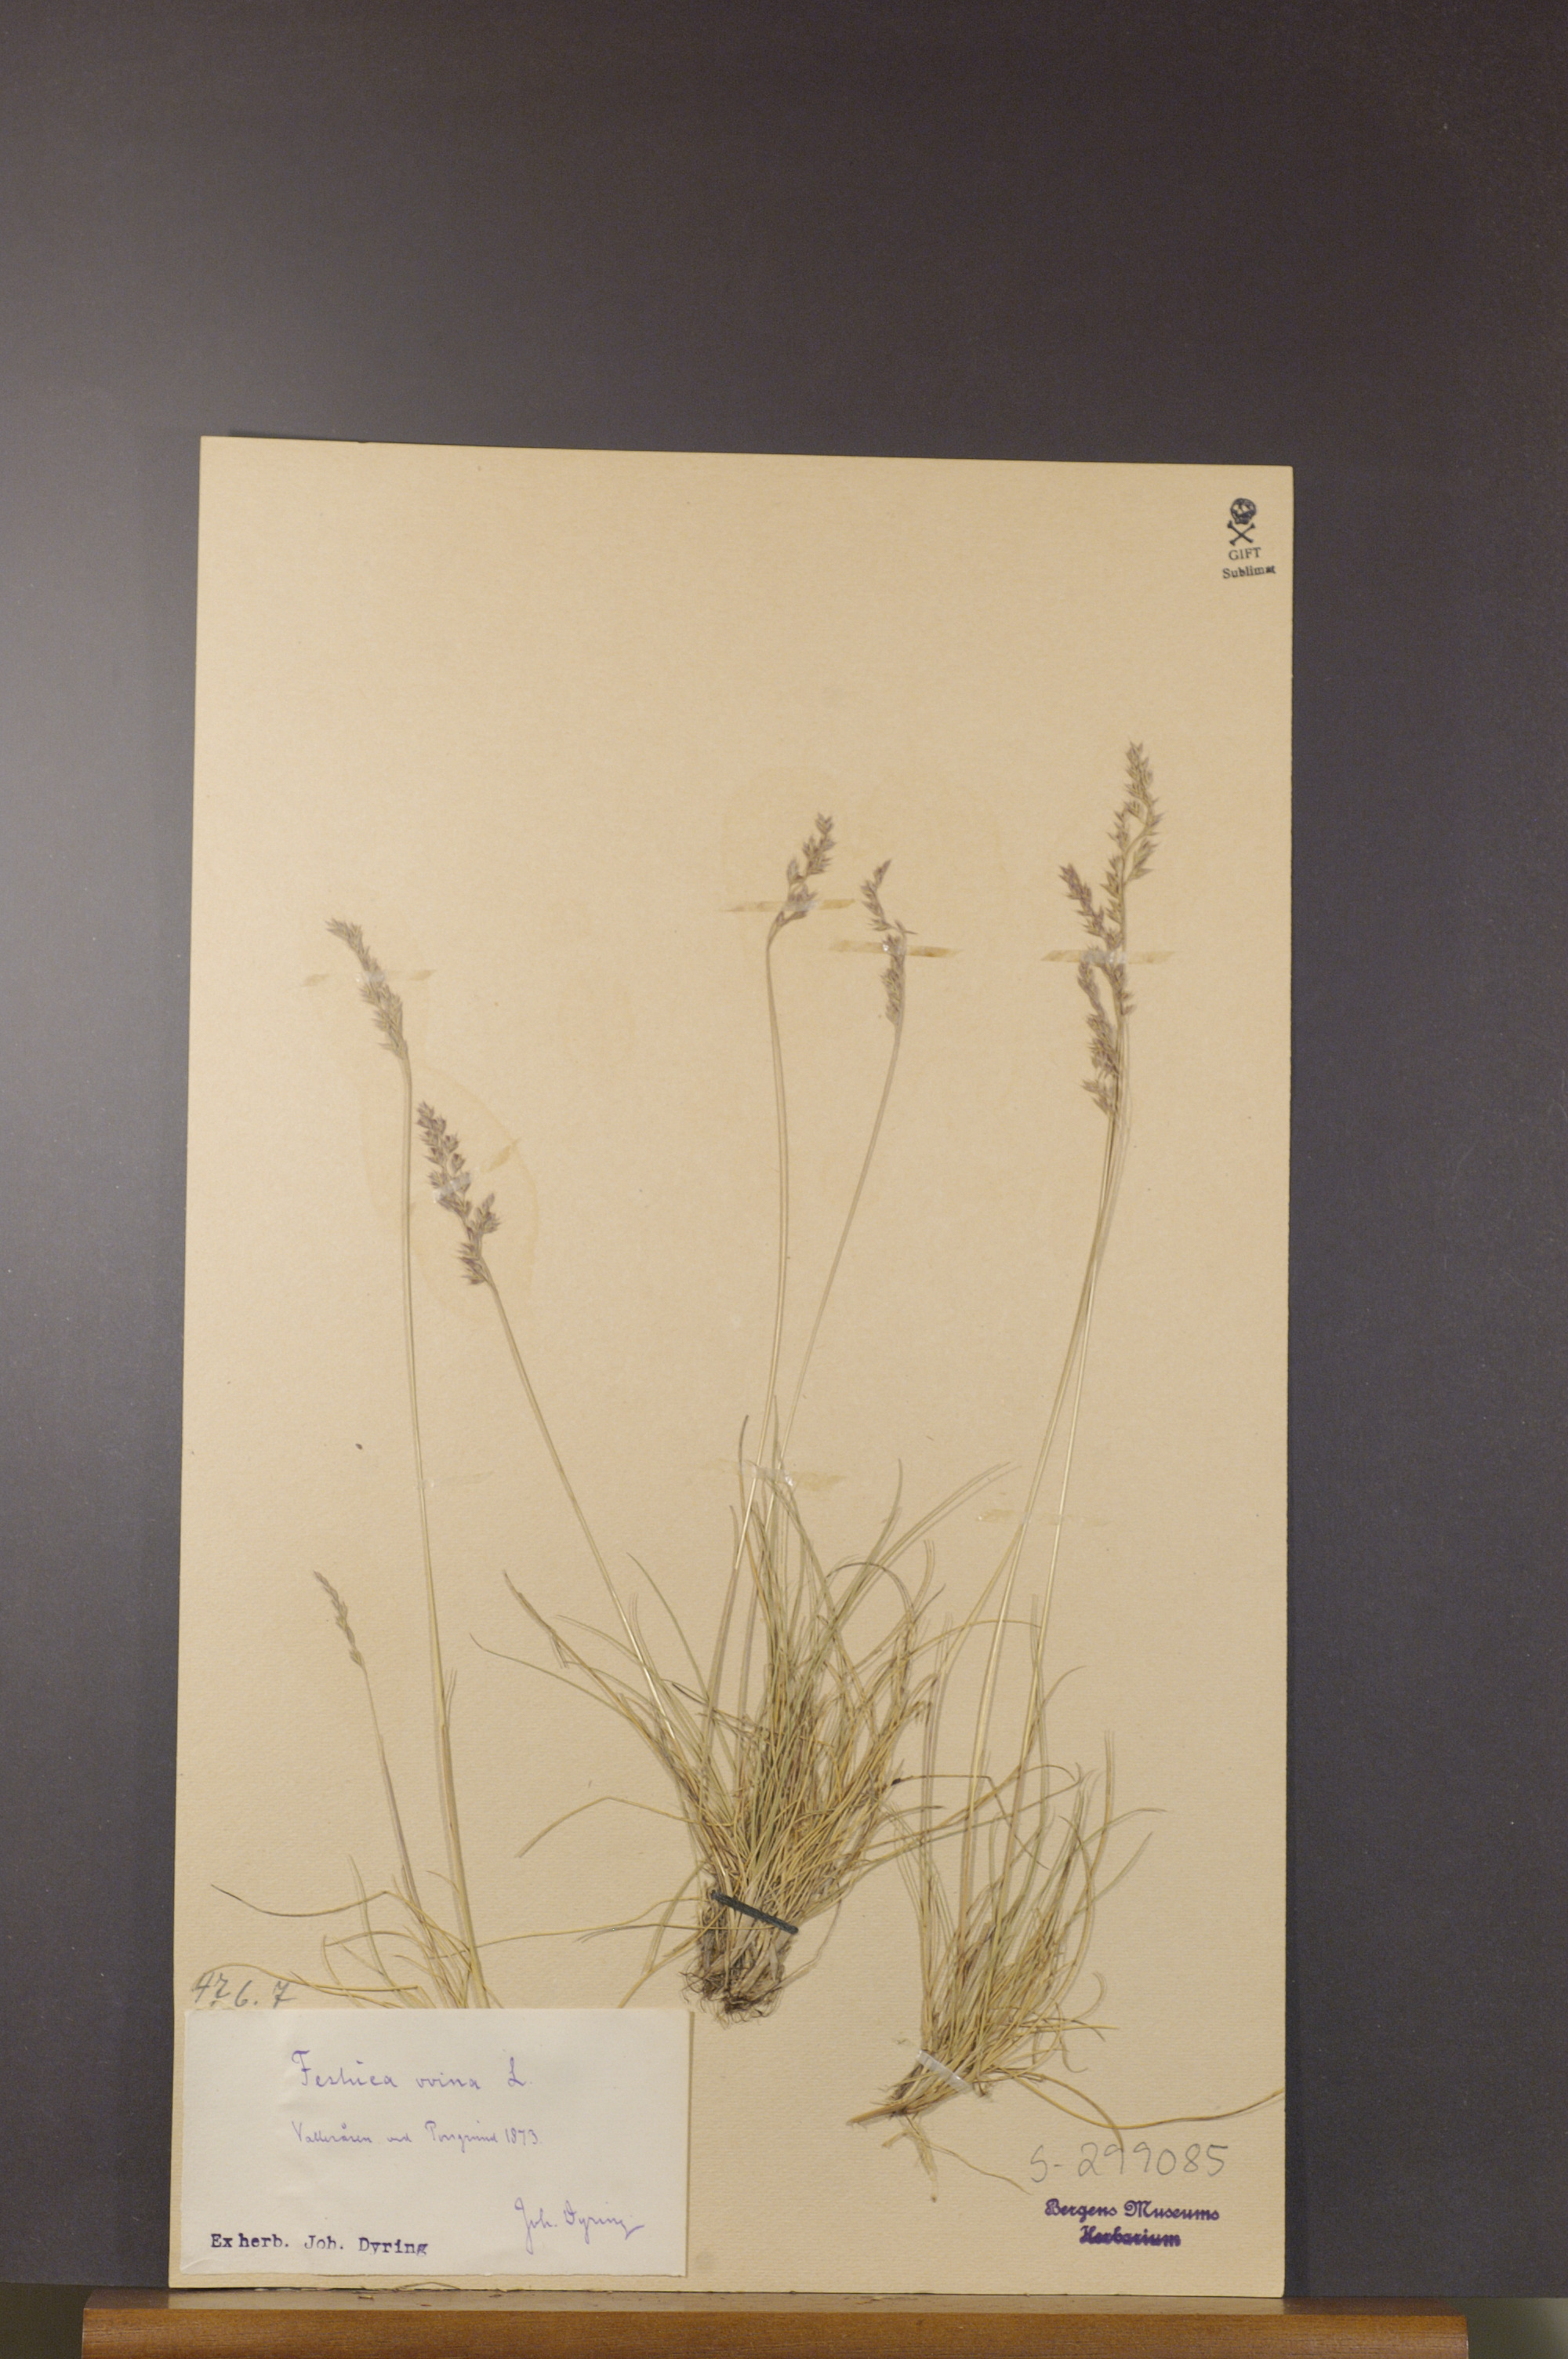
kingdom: Plantae
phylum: Tracheophyta
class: Liliopsida
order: Poales
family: Poaceae
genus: Festuca
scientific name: Festuca ovina
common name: Sheep fescue
